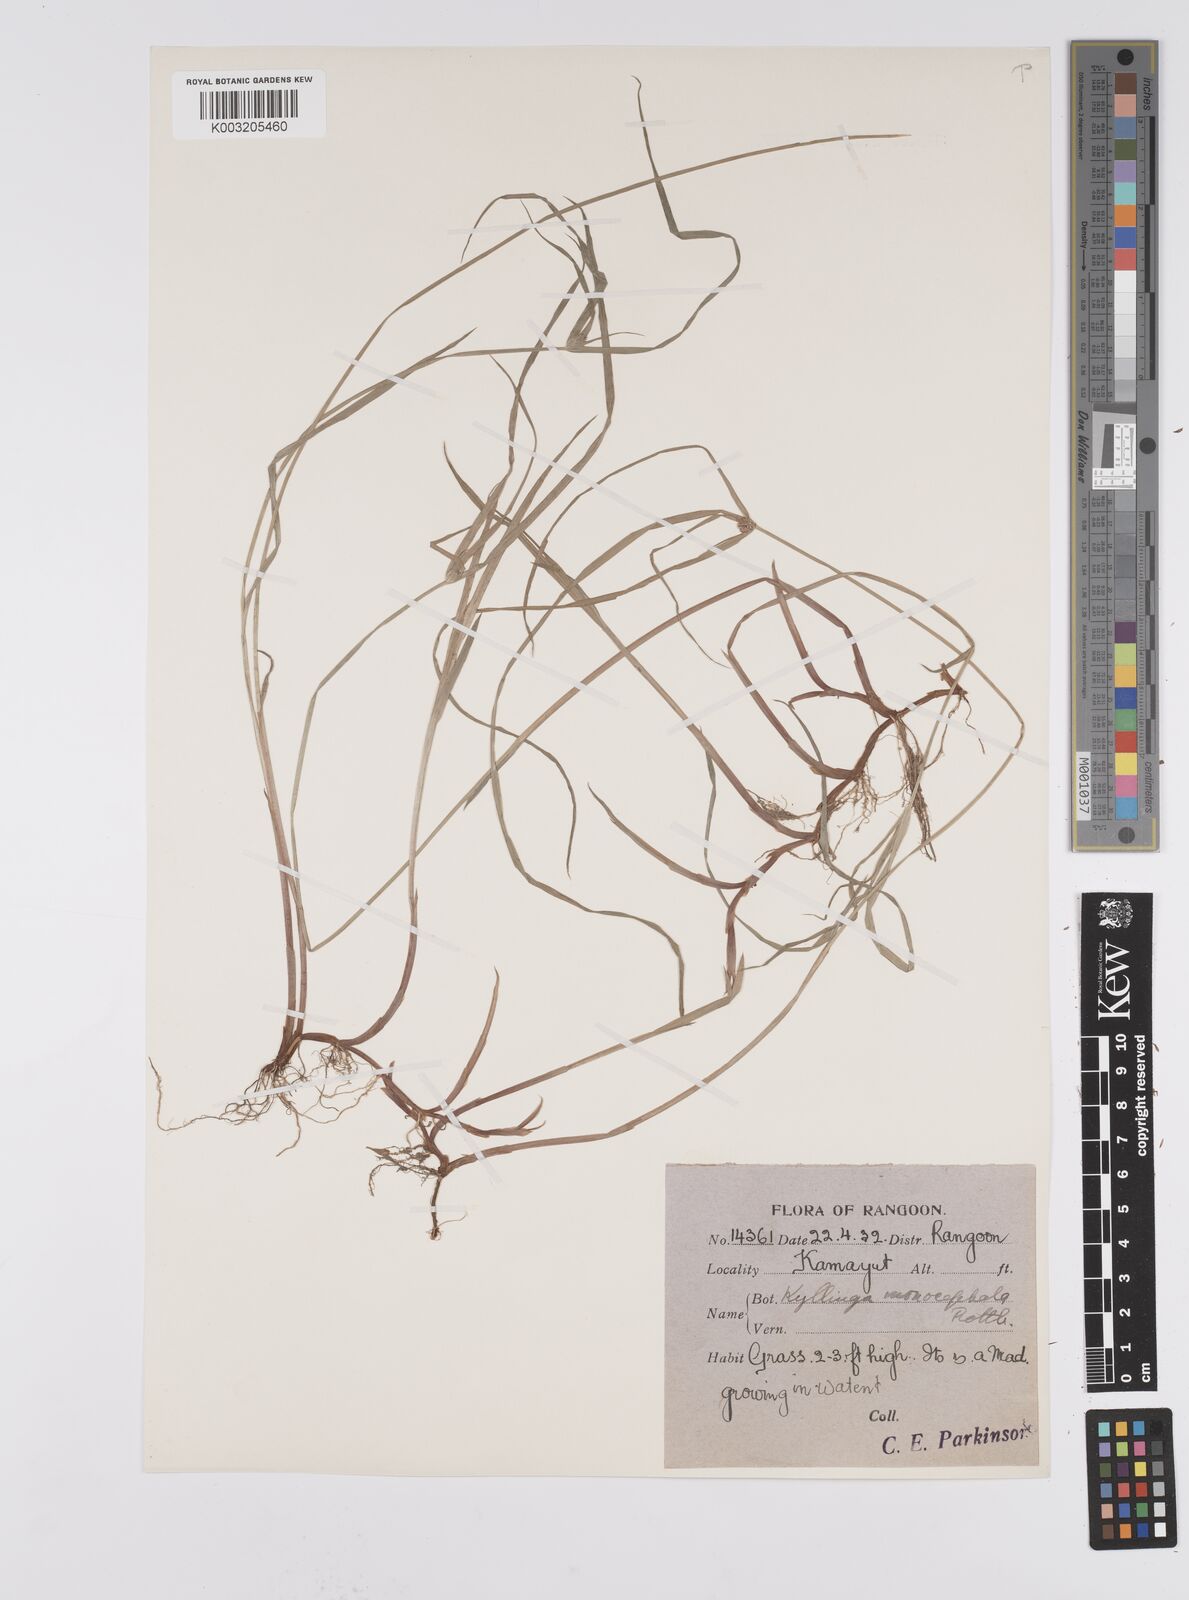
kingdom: Plantae
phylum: Tracheophyta
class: Liliopsida
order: Poales
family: Cyperaceae
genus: Cyperus
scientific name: Cyperus nemoralis
